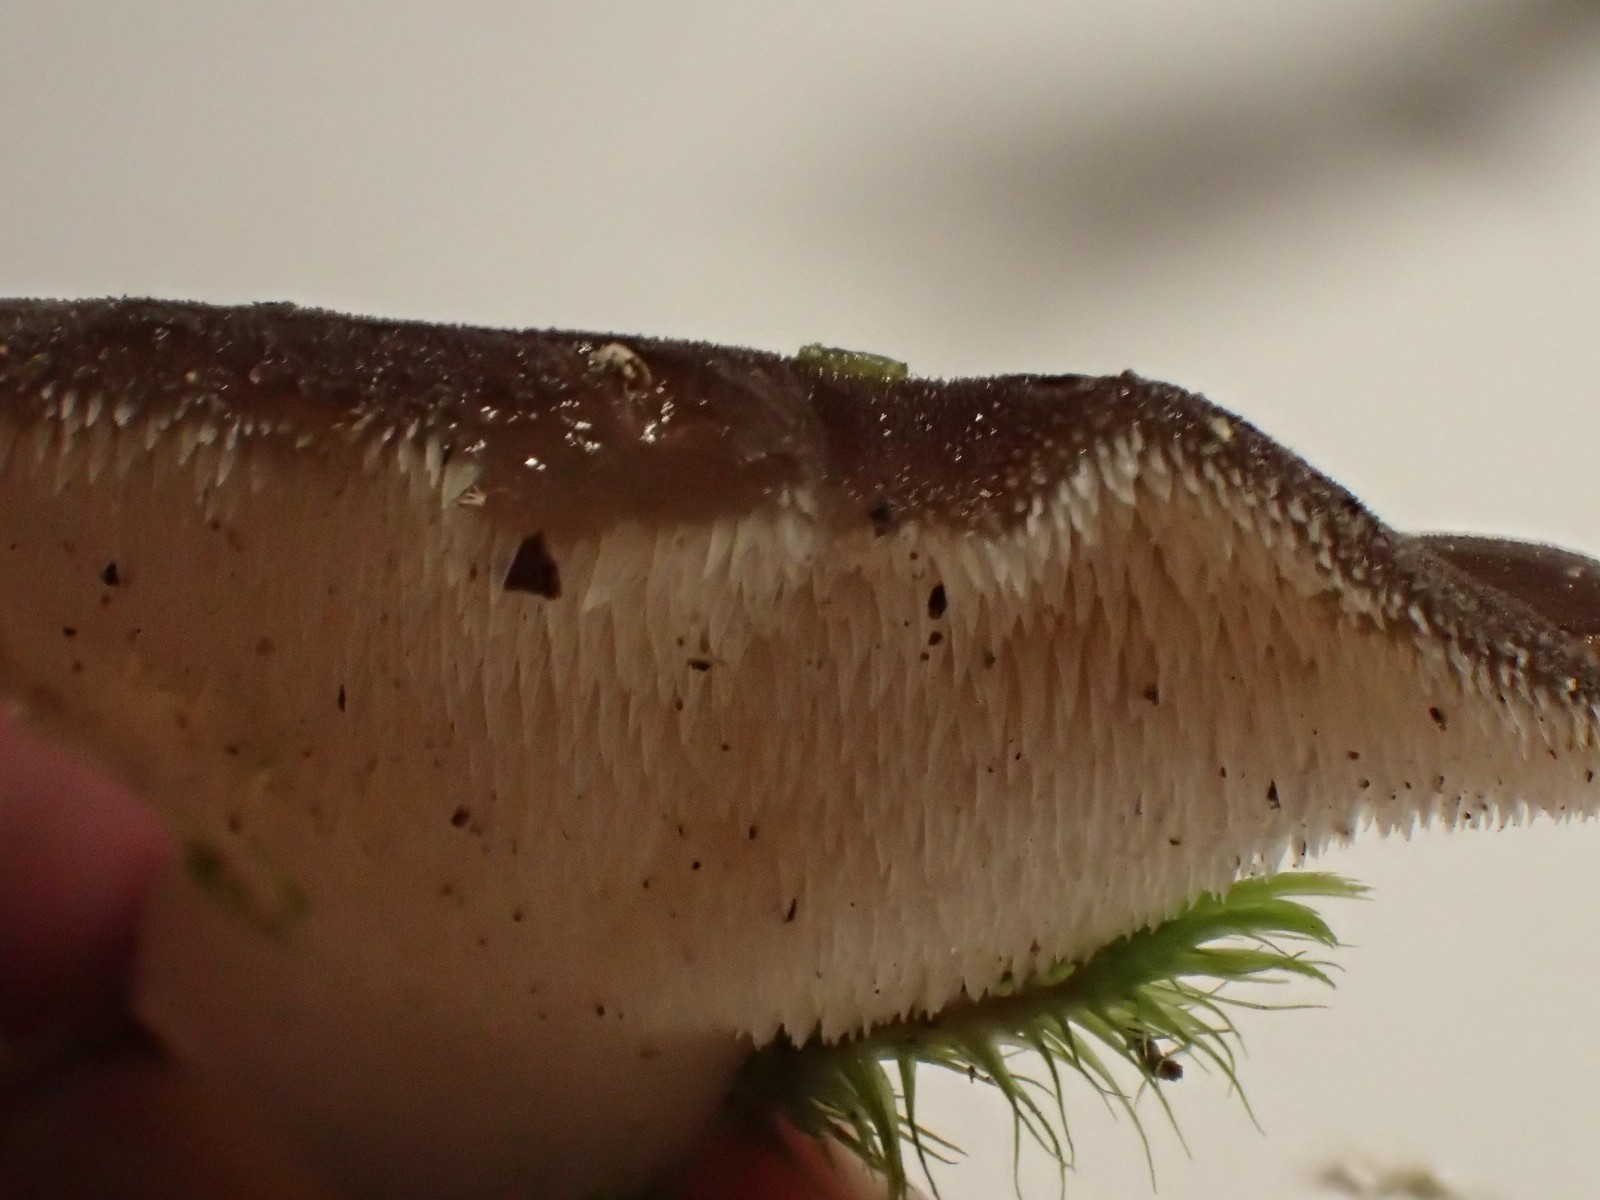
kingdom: Fungi
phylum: Basidiomycota
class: Agaricomycetes
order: Auriculariales
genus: Pseudohydnum
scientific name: Pseudohydnum gelatinosum
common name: bævretand
